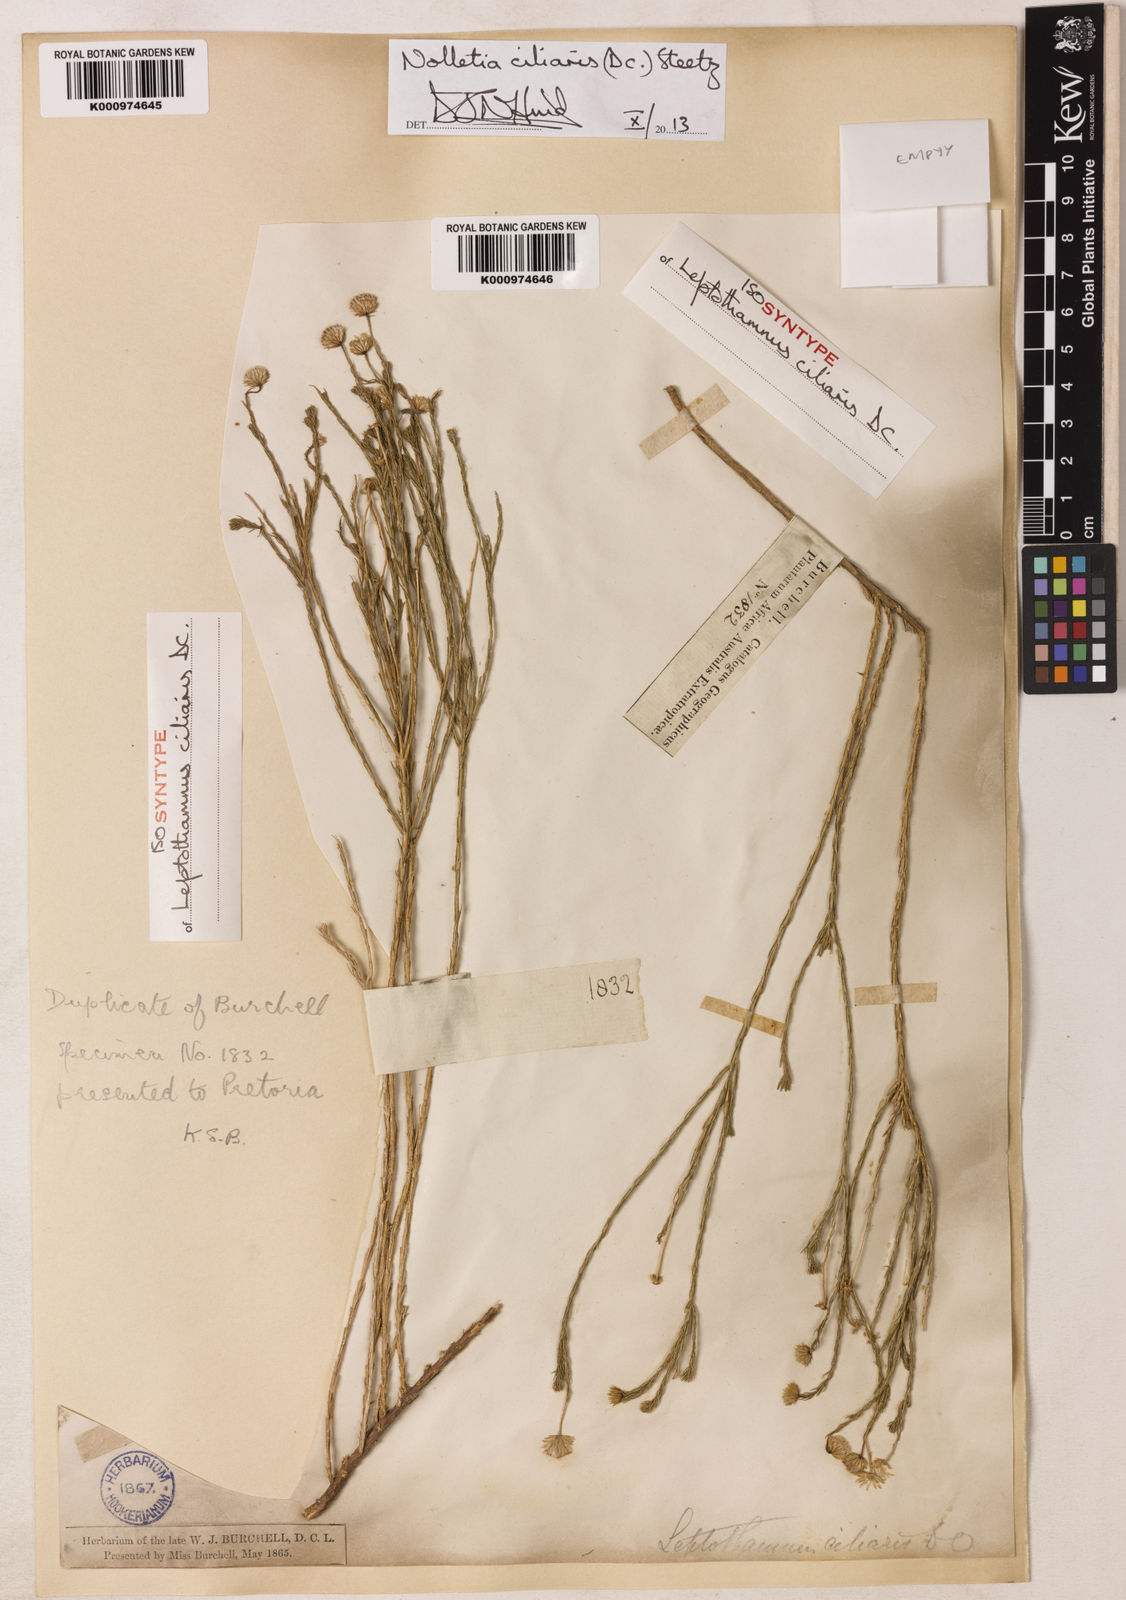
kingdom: Plantae
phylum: Tracheophyta
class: Magnoliopsida
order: Asterales
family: Asteraceae
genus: Nolletia
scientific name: Nolletia ciliaris
